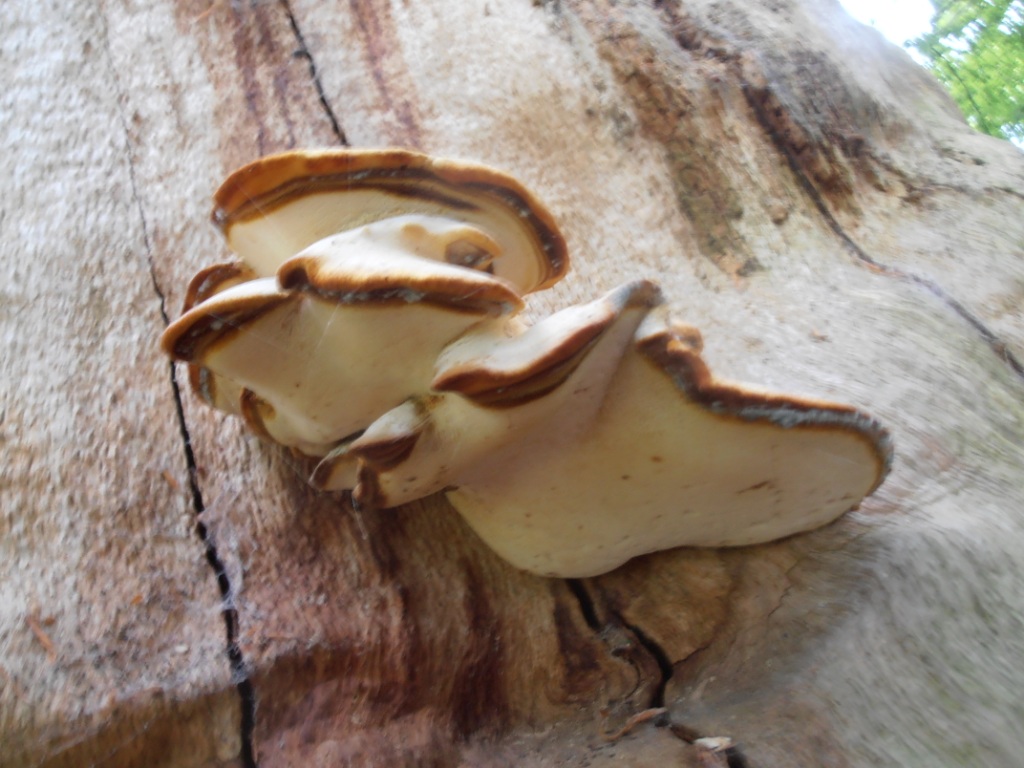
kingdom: Fungi
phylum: Basidiomycota
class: Agaricomycetes
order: Polyporales
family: Fomitopsidaceae
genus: Buglossoporus
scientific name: Buglossoporus quercinus
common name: egetunge
